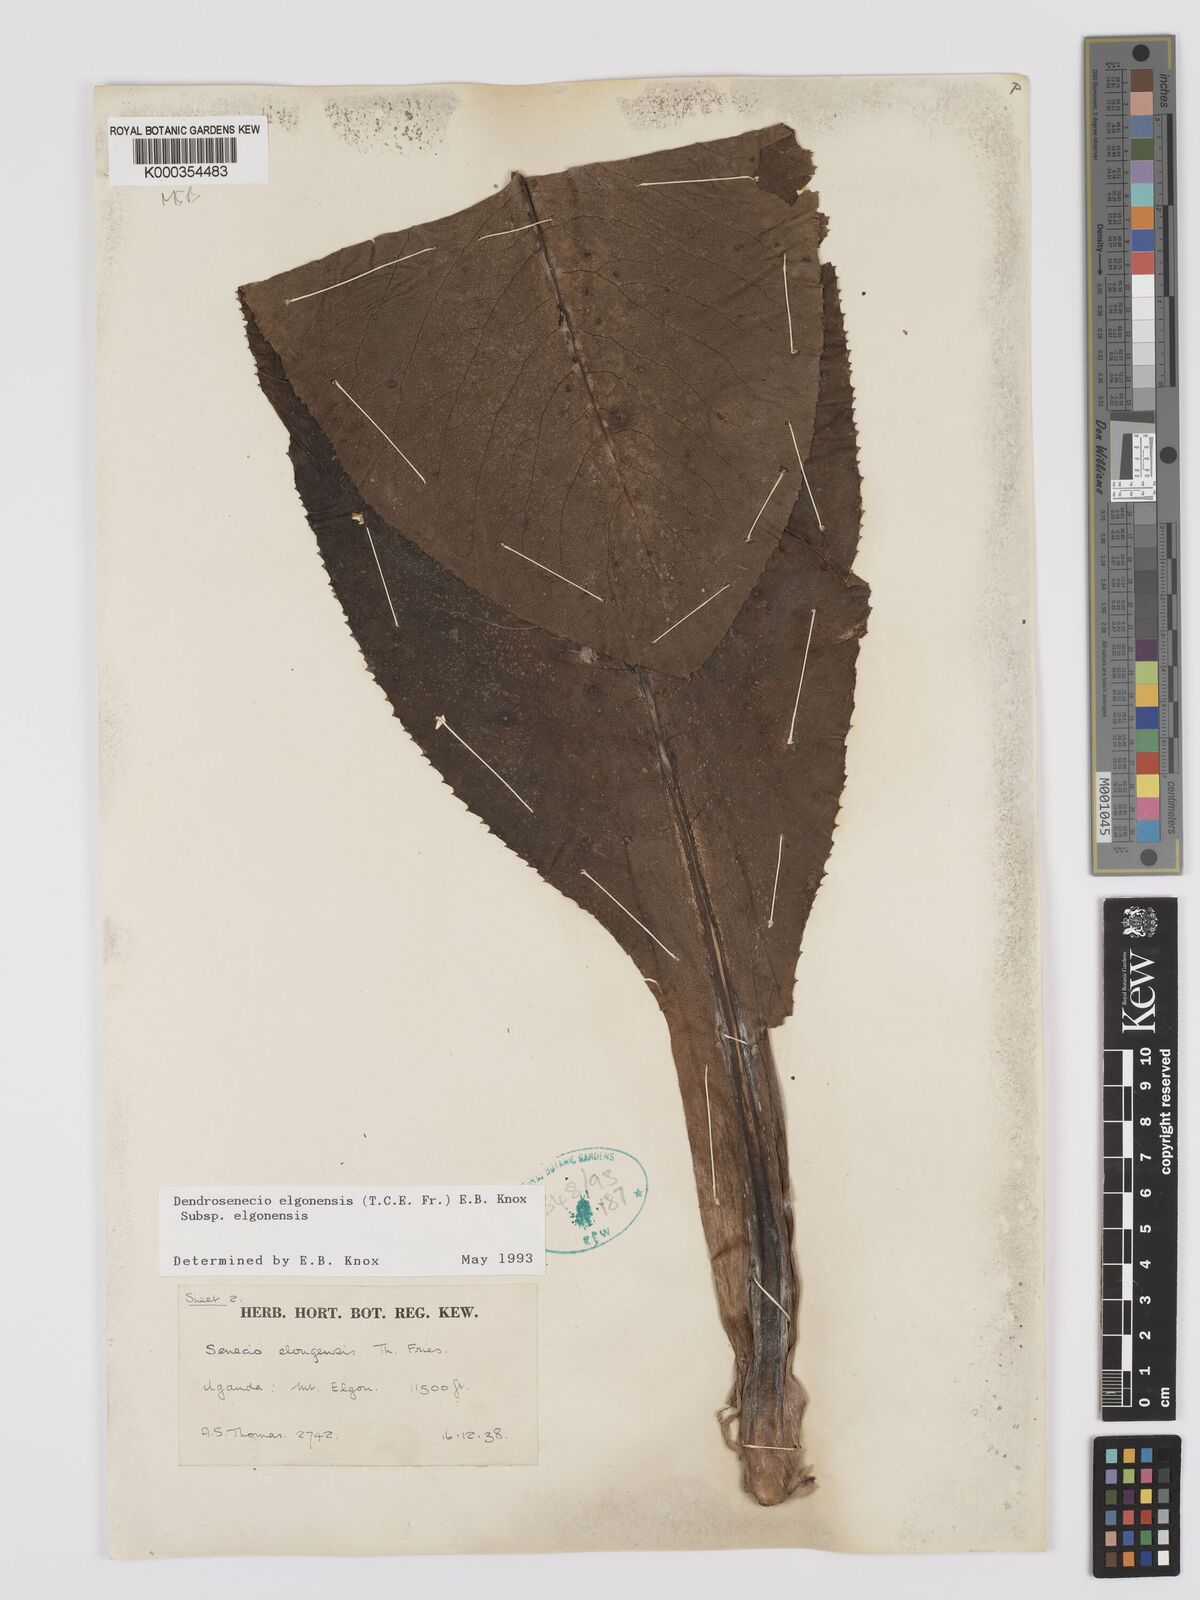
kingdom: Plantae
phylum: Tracheophyta
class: Magnoliopsida
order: Asterales
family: Asteraceae
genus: Dendrosenecio
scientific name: Dendrosenecio elgonensis
